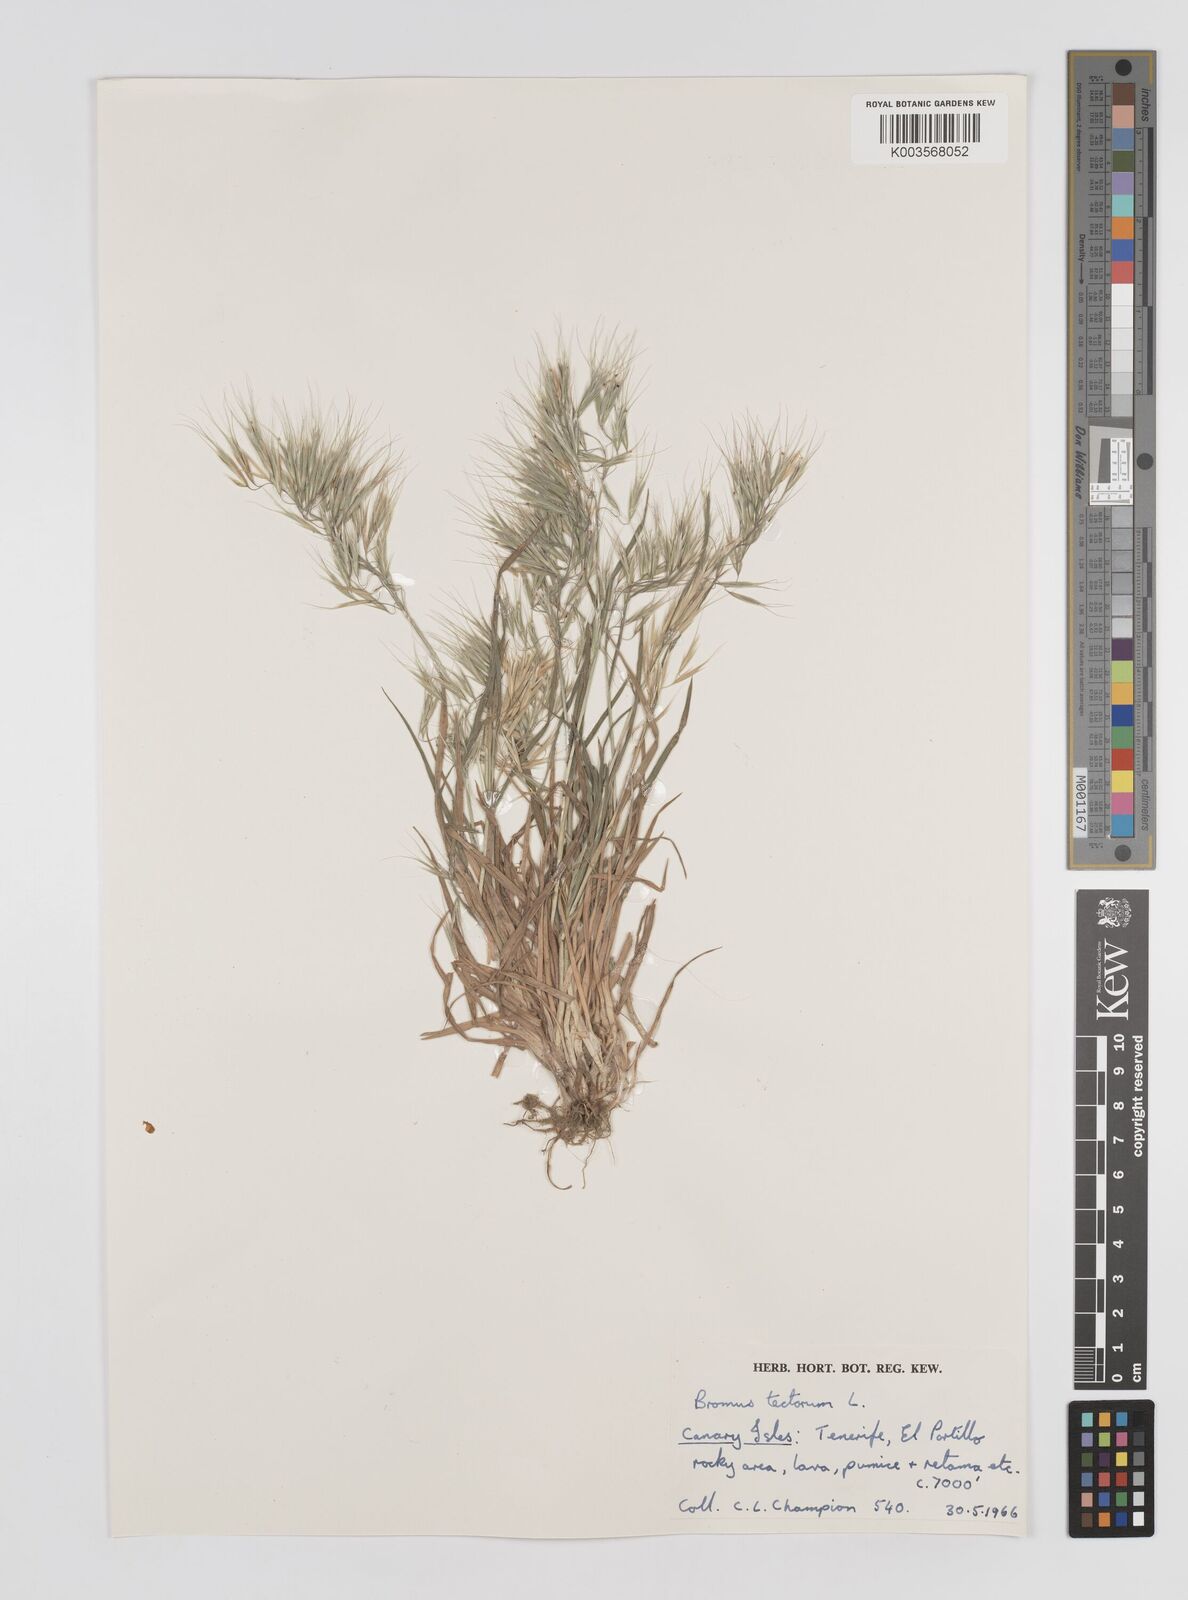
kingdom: Plantae
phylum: Tracheophyta
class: Liliopsida
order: Poales
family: Poaceae
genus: Bromus
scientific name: Bromus tectorum
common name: Cheatgrass
